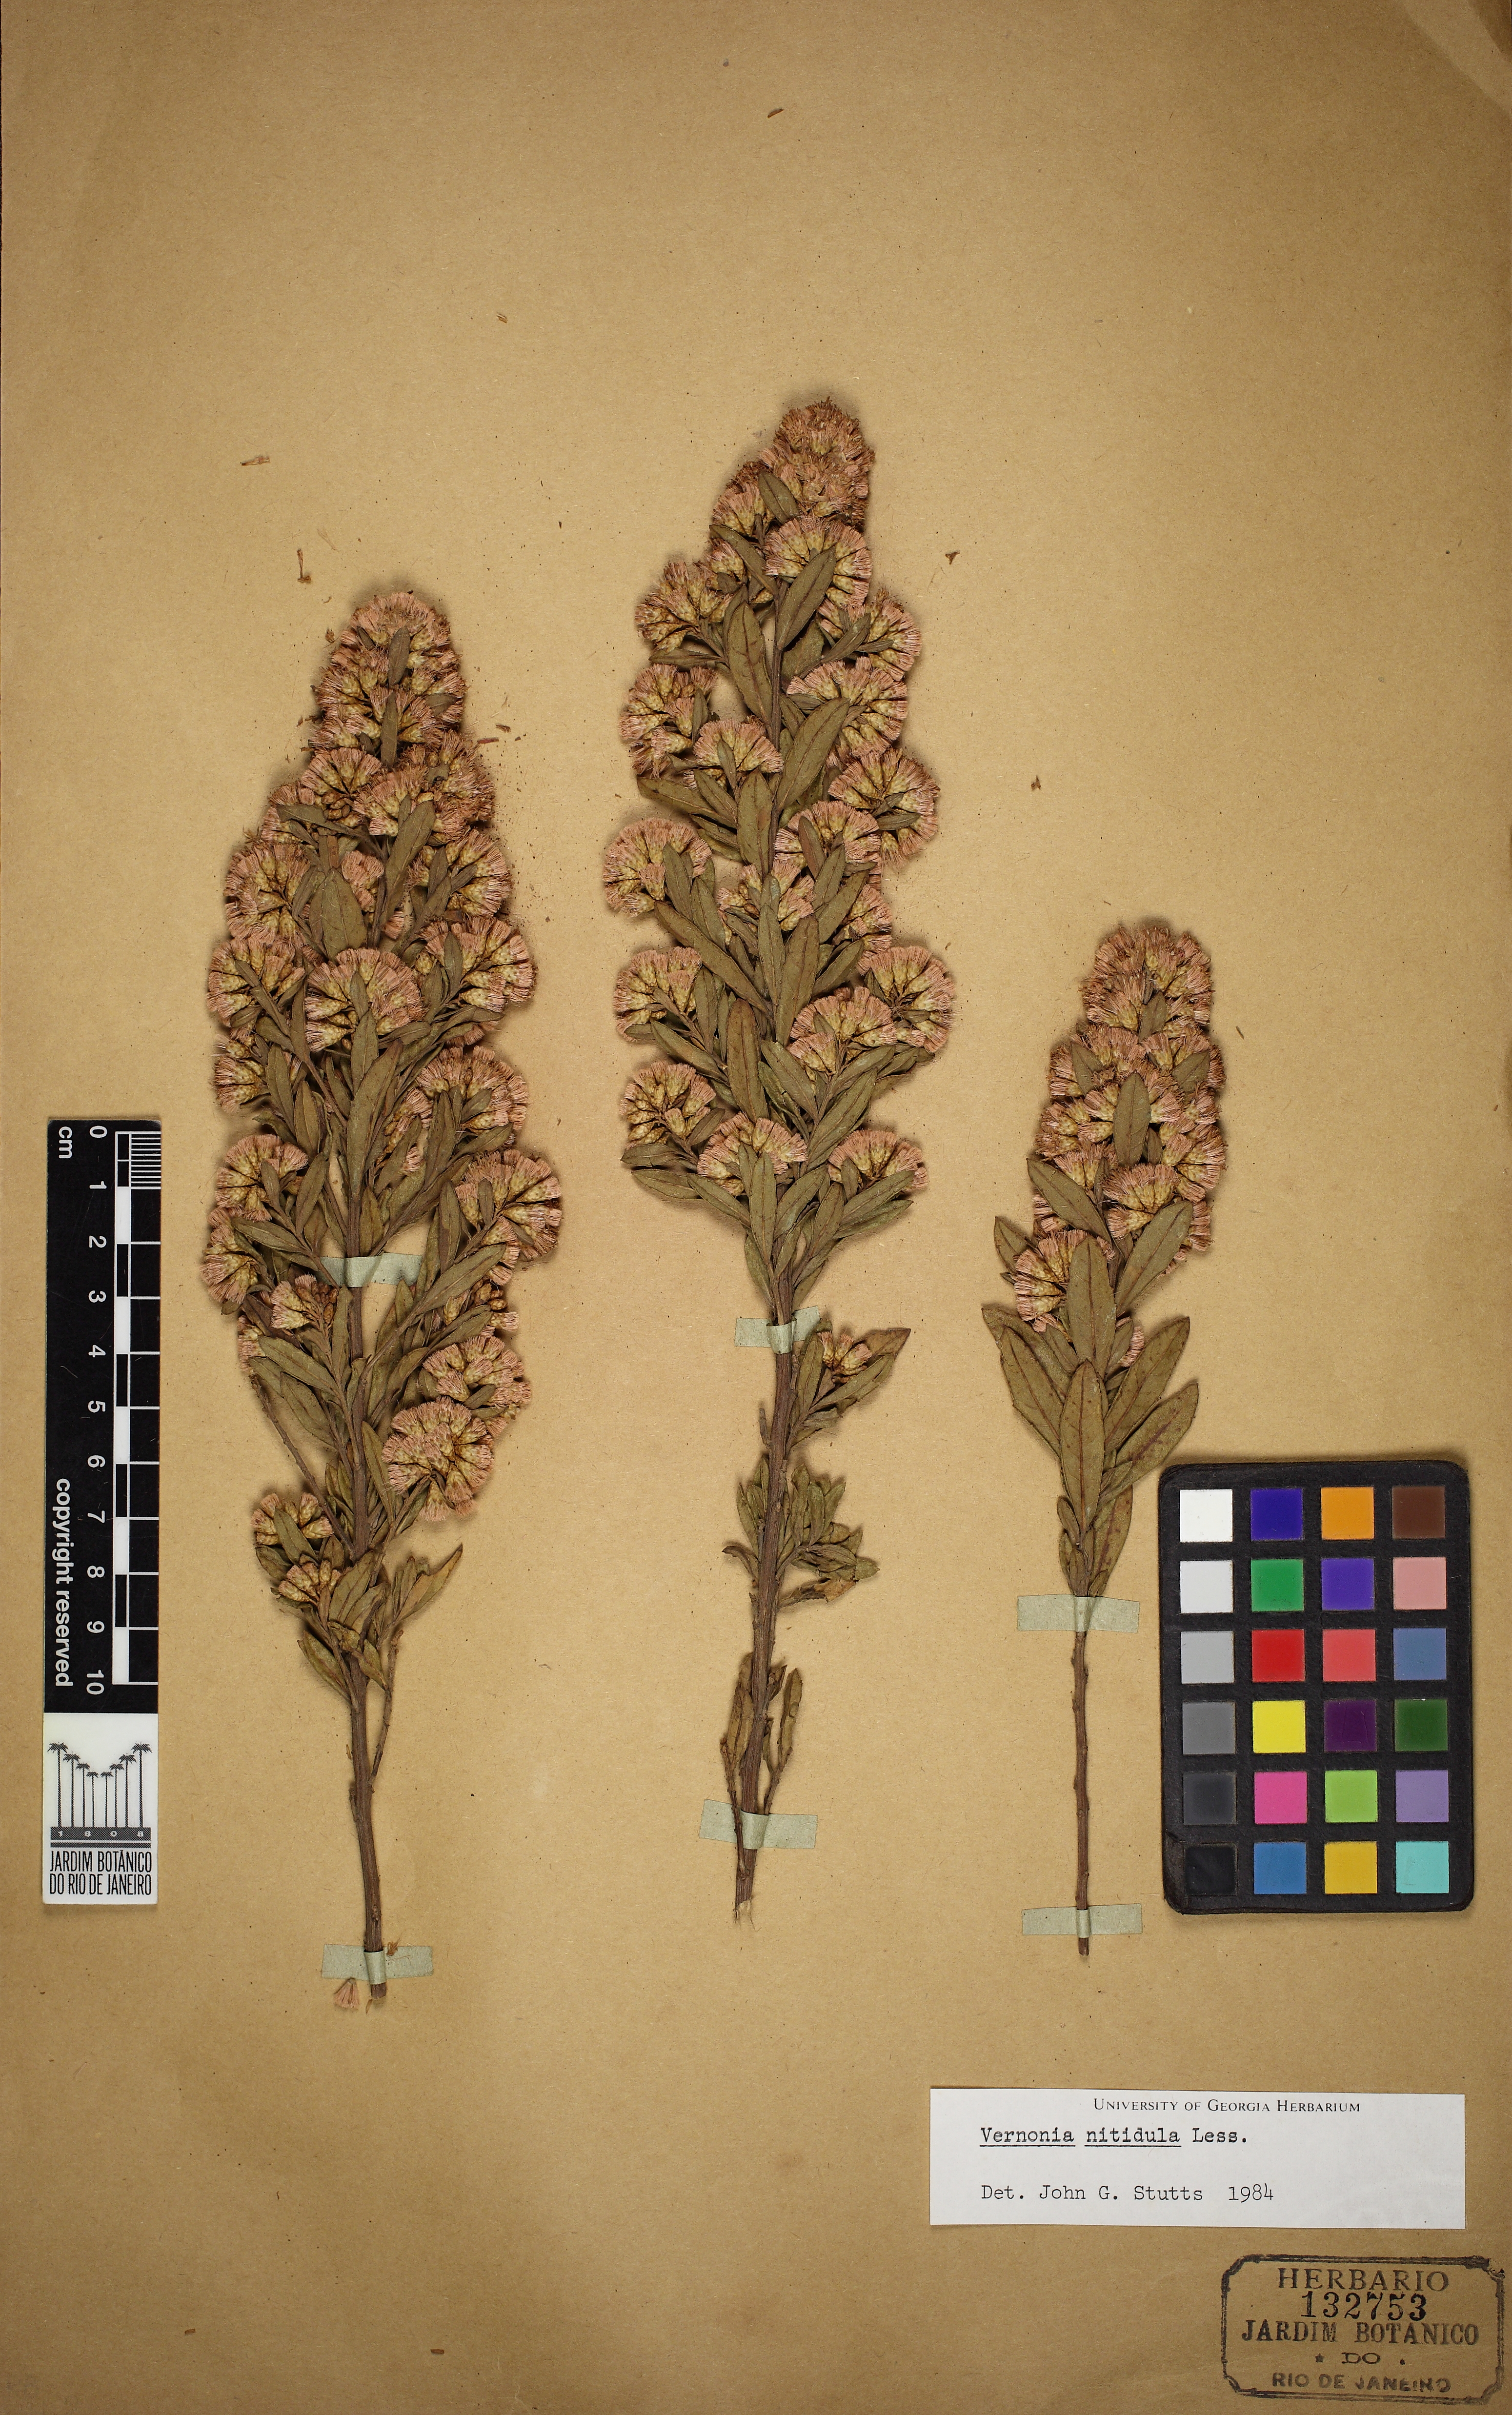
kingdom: Plantae
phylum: Tracheophyta
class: Magnoliopsida
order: Asterales
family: Asteraceae
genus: Vernonanthura
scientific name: Vernonanthura montevidensis
